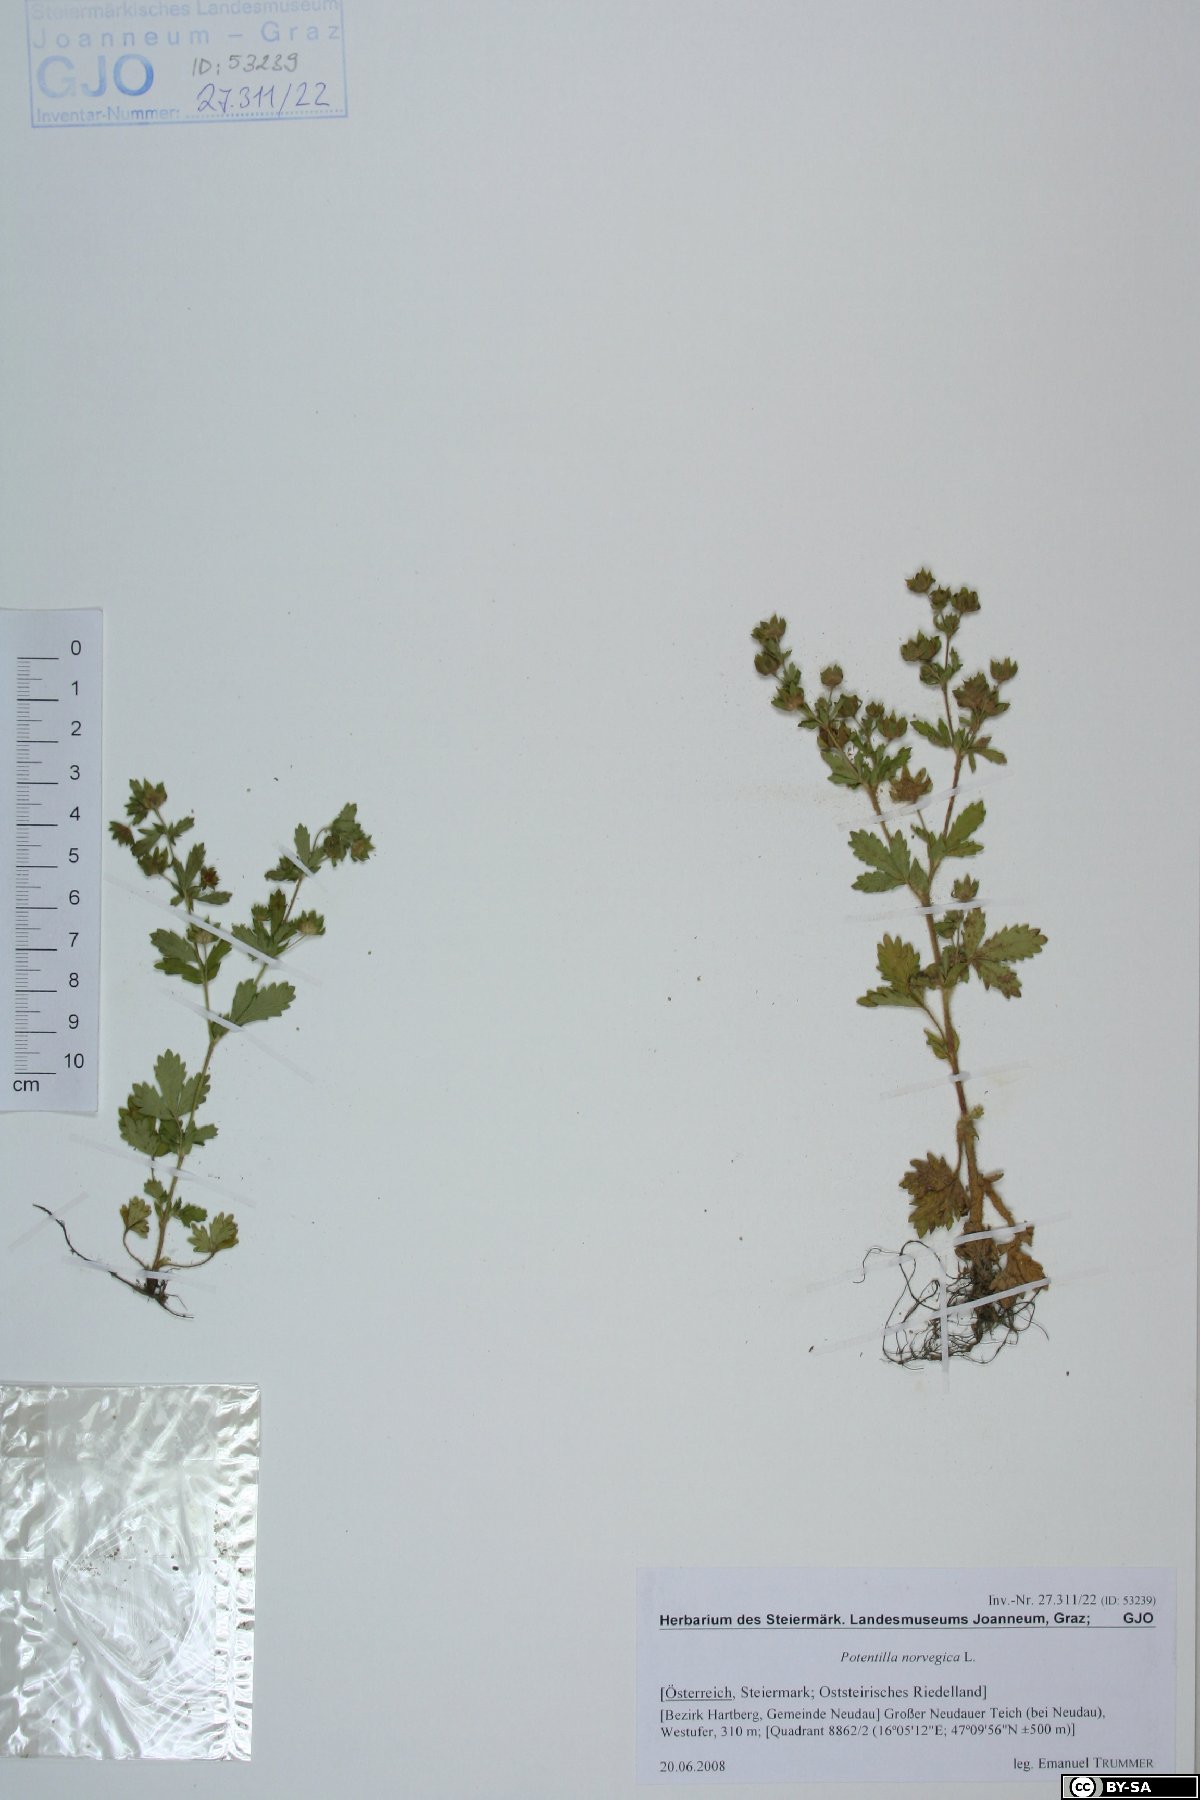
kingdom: Plantae
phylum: Tracheophyta
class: Magnoliopsida
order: Rosales
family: Rosaceae
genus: Potentilla
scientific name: Potentilla norvegica
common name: Ternate-leaved cinquefoil
